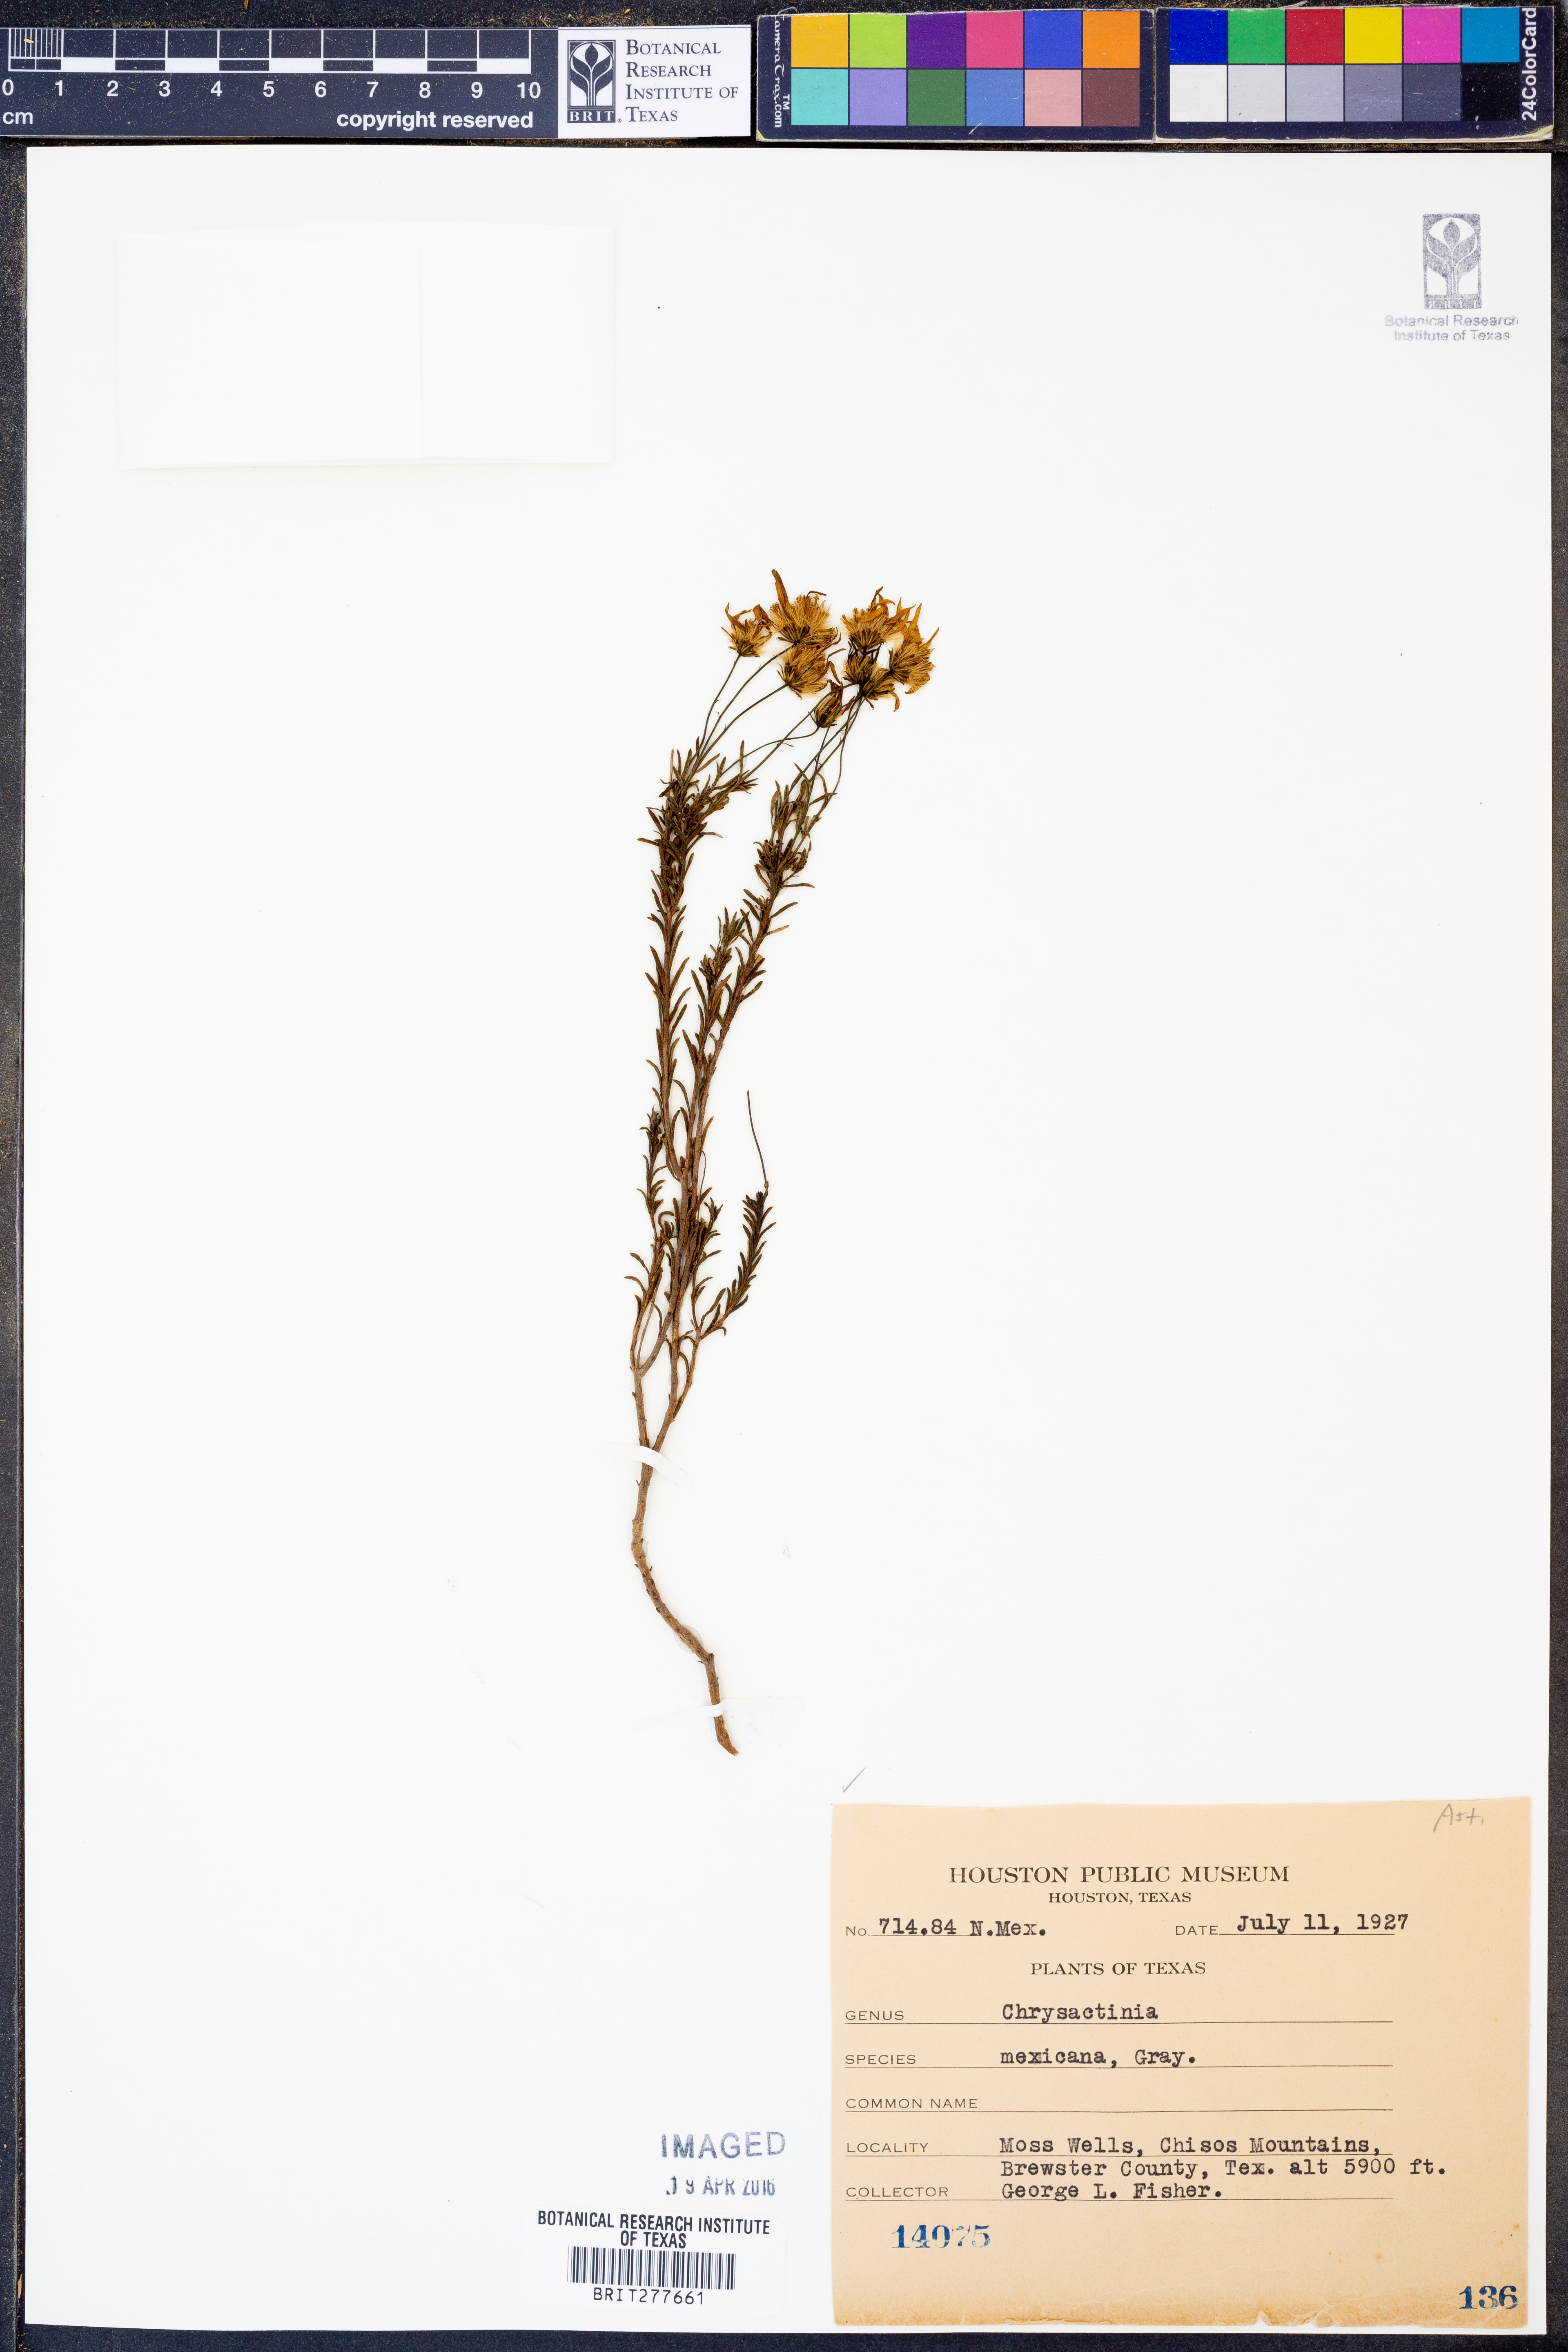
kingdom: Plantae
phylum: Tracheophyta
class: Magnoliopsida
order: Asterales
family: Asteraceae
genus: Chrysactinia
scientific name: Chrysactinia mexicana
